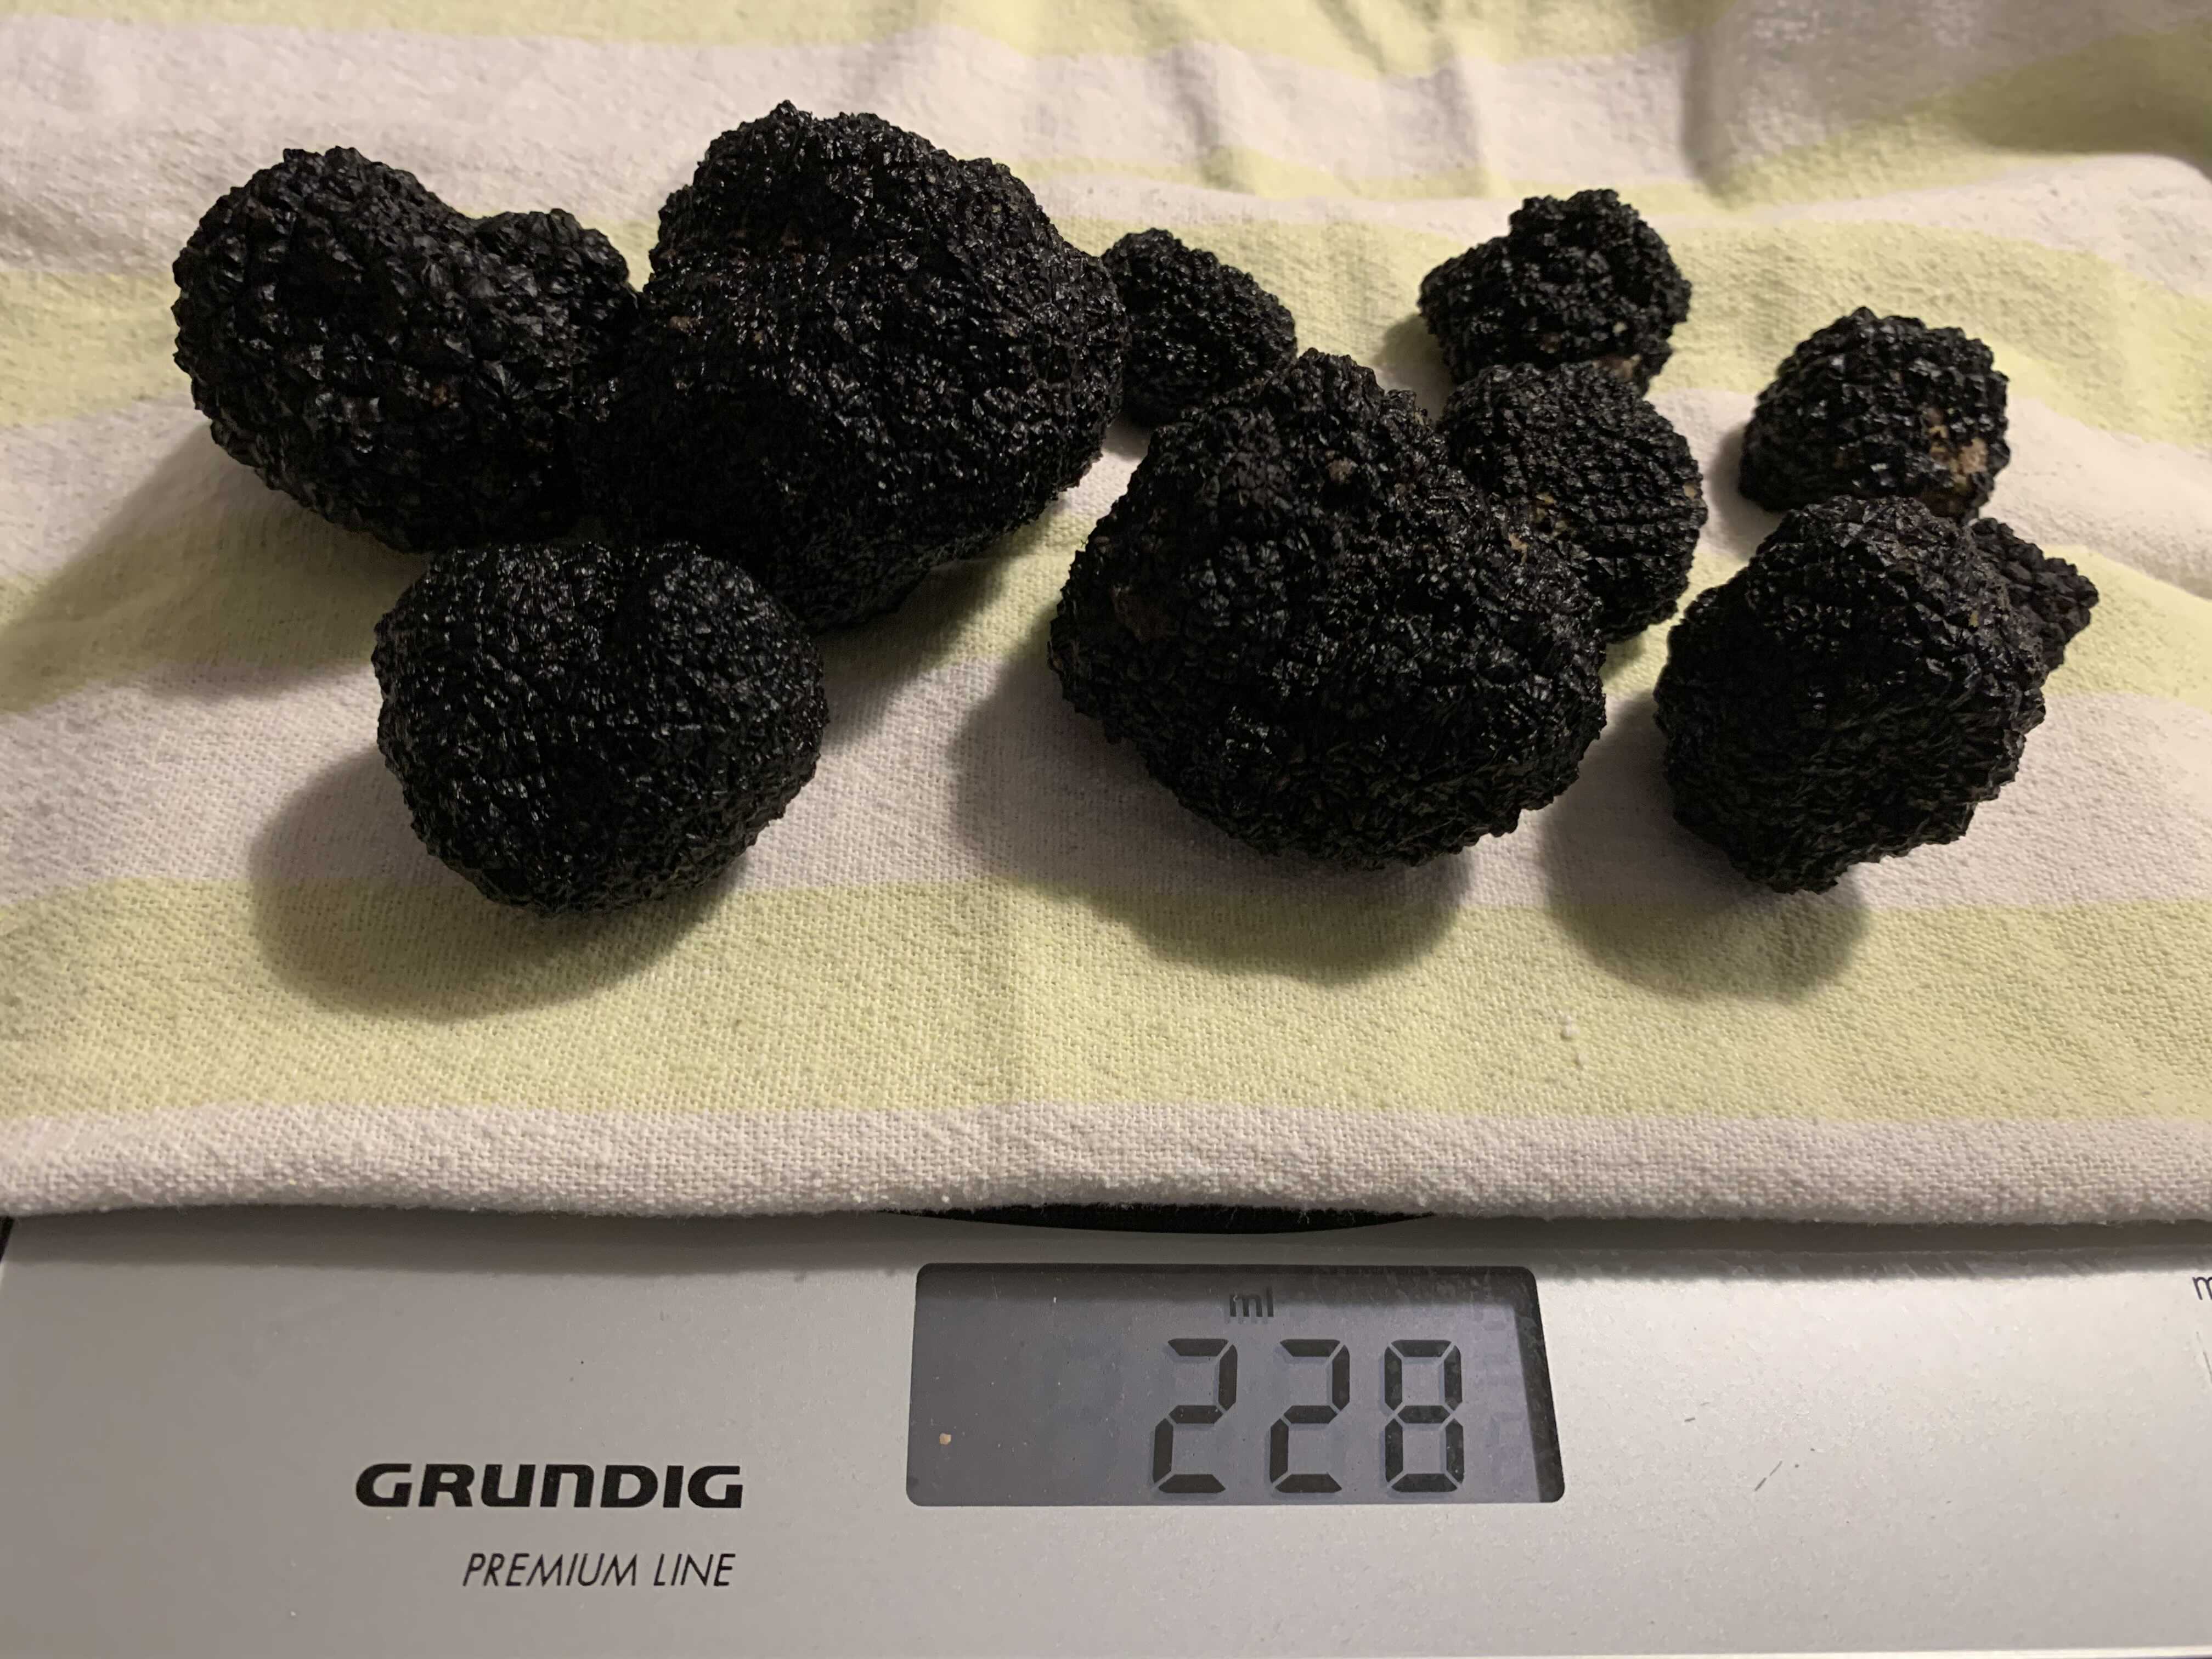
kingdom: Fungi
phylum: Ascomycota
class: Pezizomycetes
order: Pezizales
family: Tuberaceae
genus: Tuber
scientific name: Tuber aestivum
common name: sommer-trøffel
